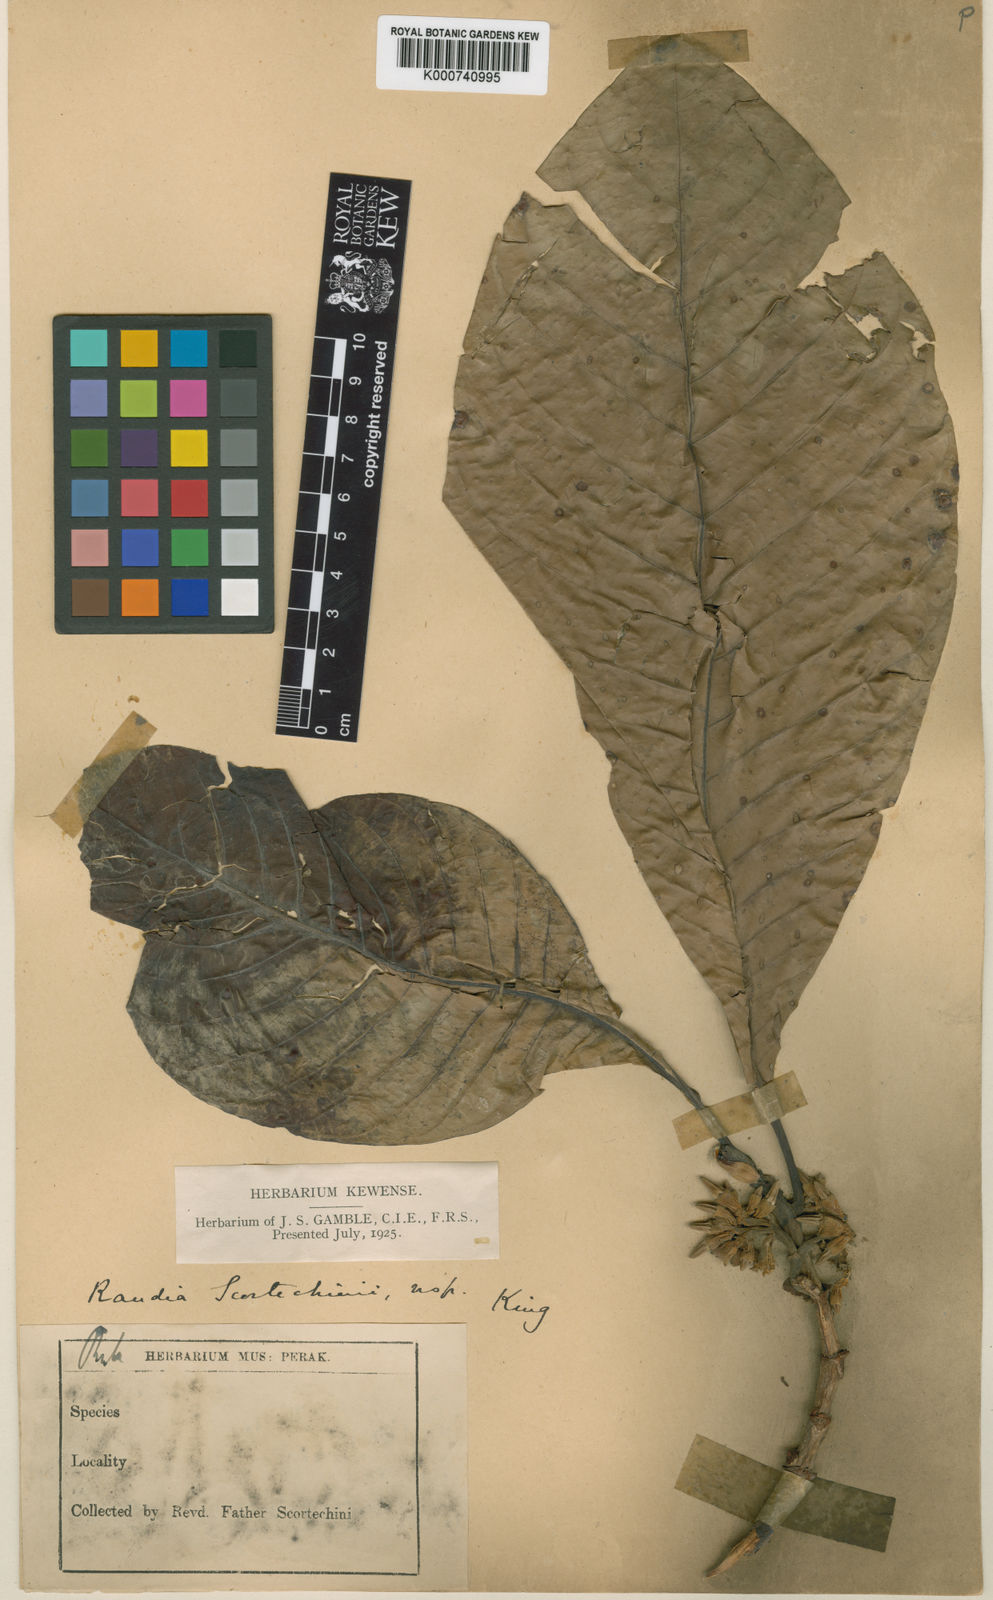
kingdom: Plantae
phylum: Tracheophyta
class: Magnoliopsida
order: Gentianales
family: Rubiaceae
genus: Porterandia
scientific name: Porterandia scortechinii
